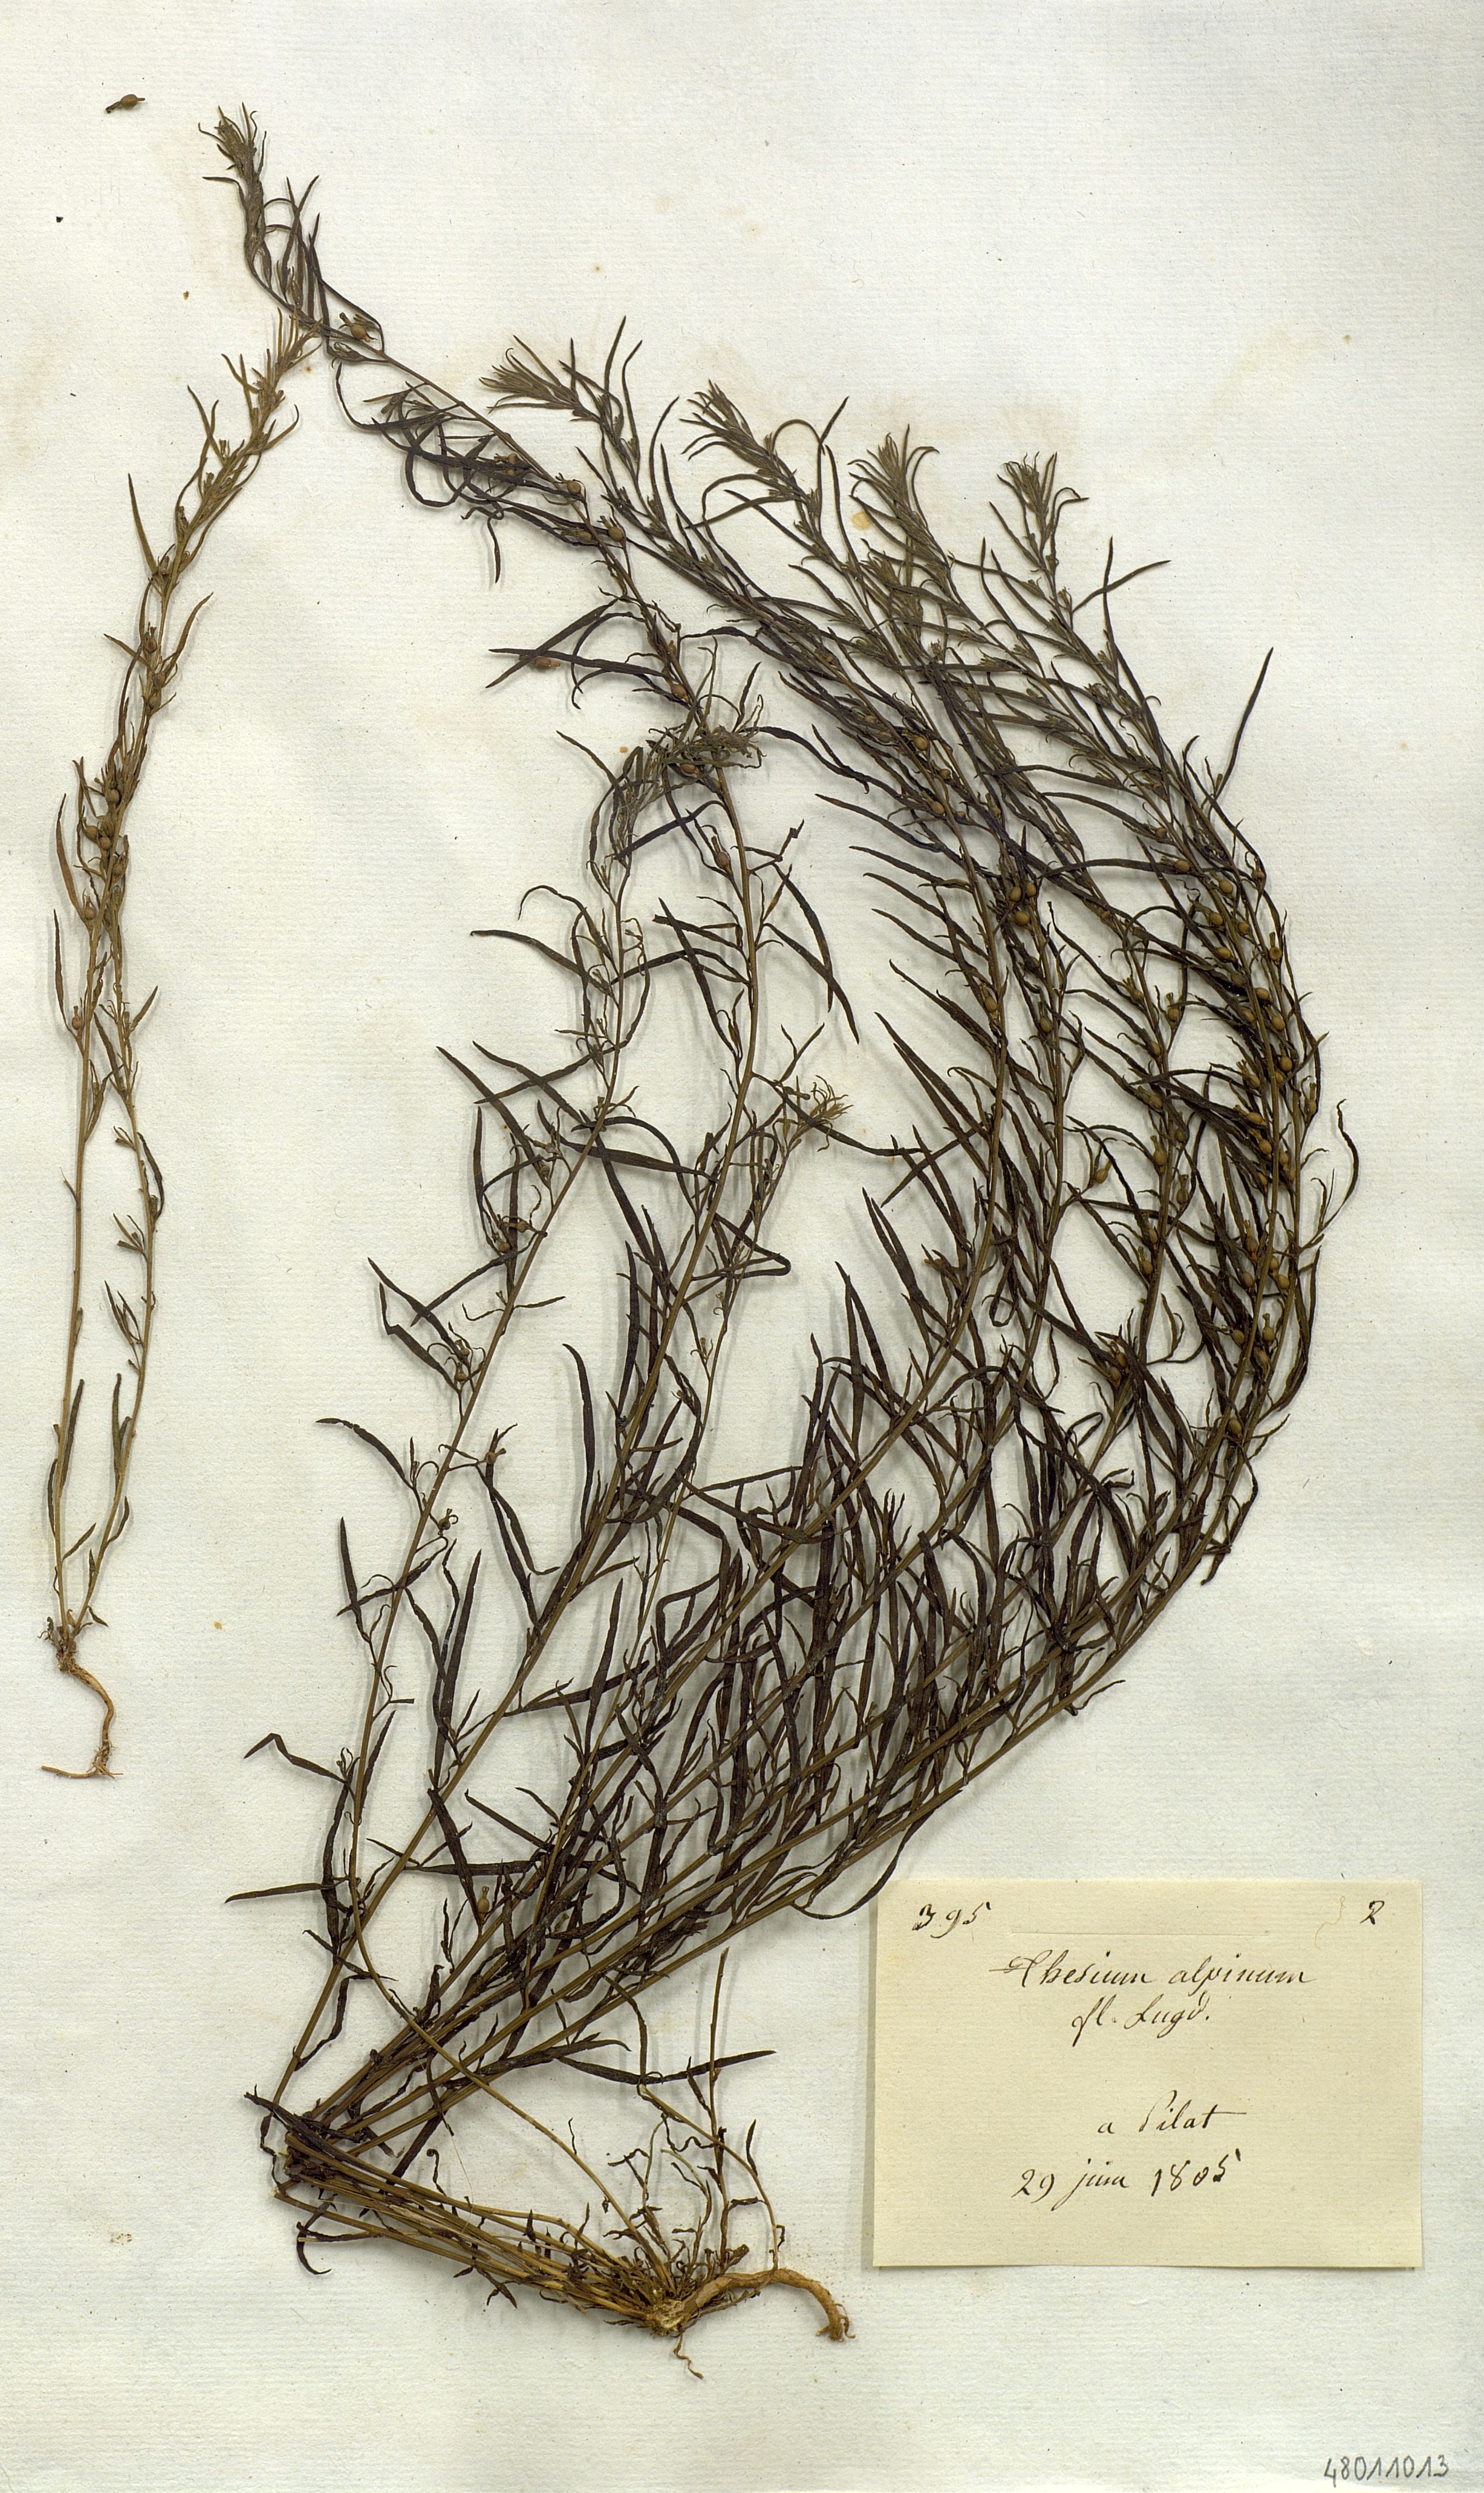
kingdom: Plantae
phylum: Tracheophyta
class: Magnoliopsida
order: Santalales
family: Thesiaceae
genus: Thesium
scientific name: Thesium alpinum
